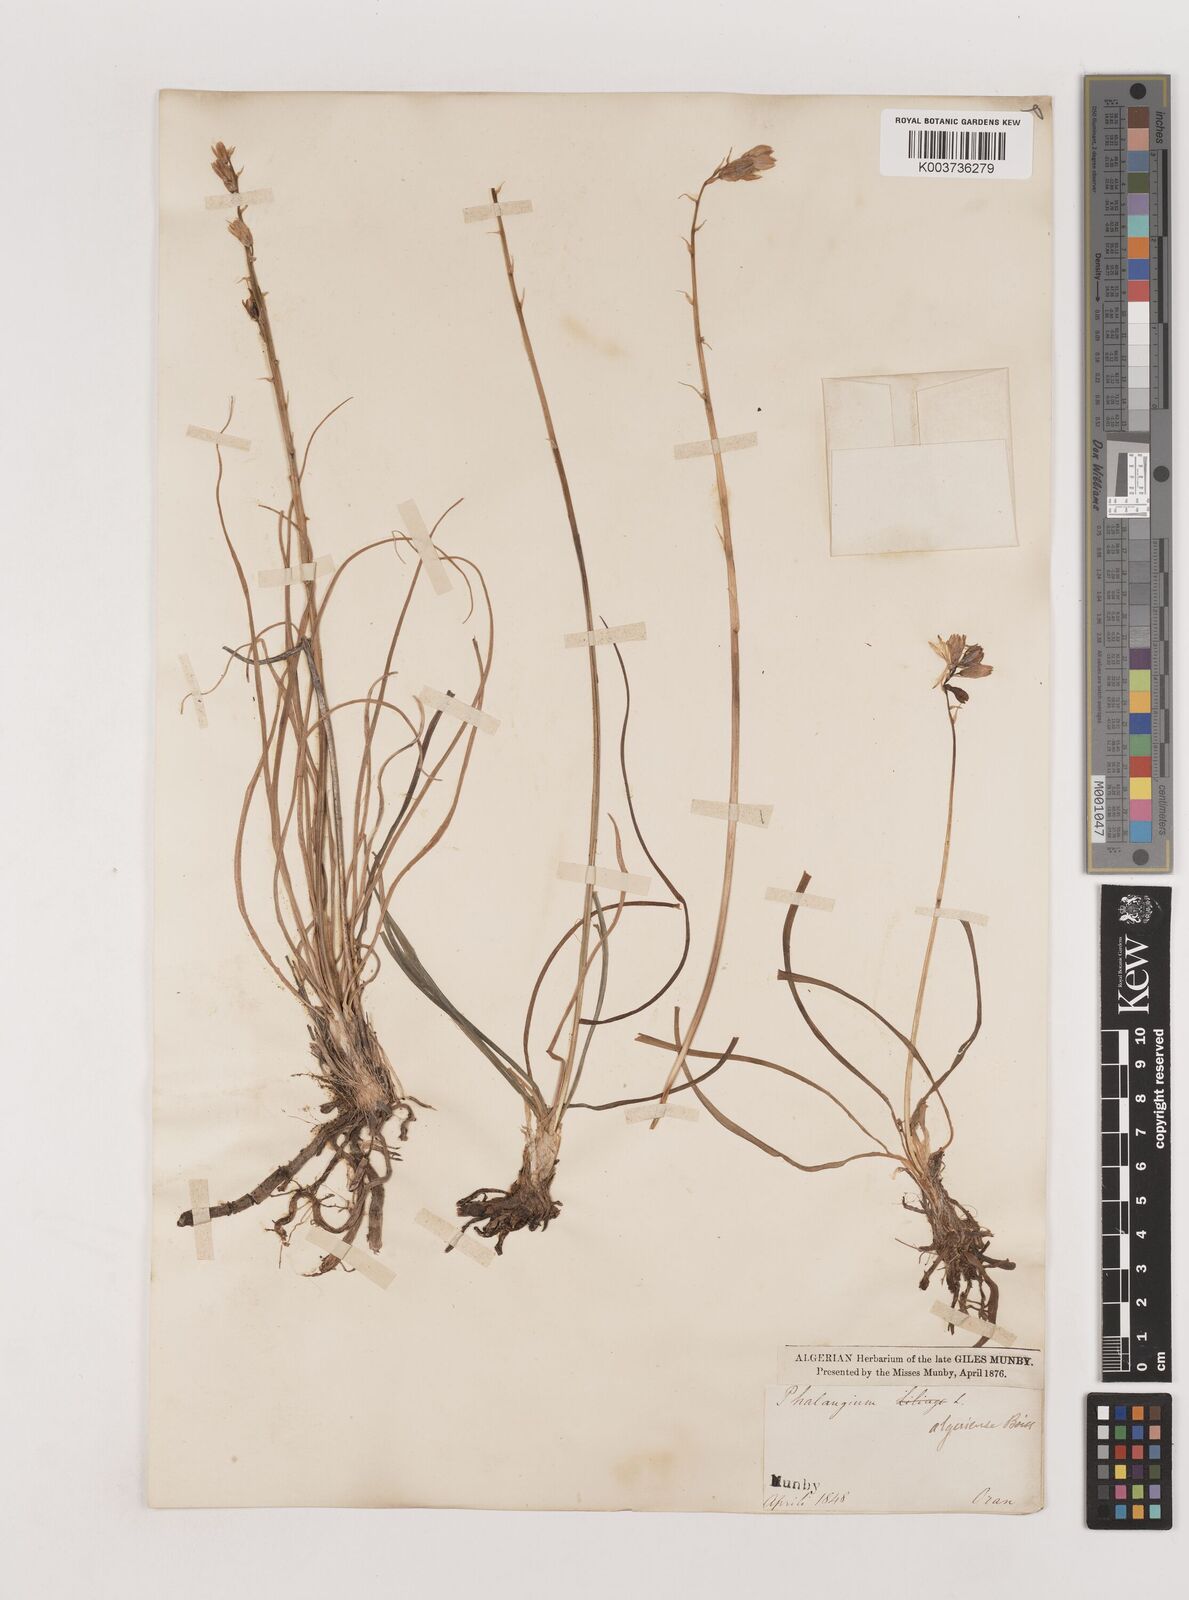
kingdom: Plantae
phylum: Tracheophyta
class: Liliopsida
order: Asparagales
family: Asparagaceae
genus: Anthericum
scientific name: Anthericum liliago
